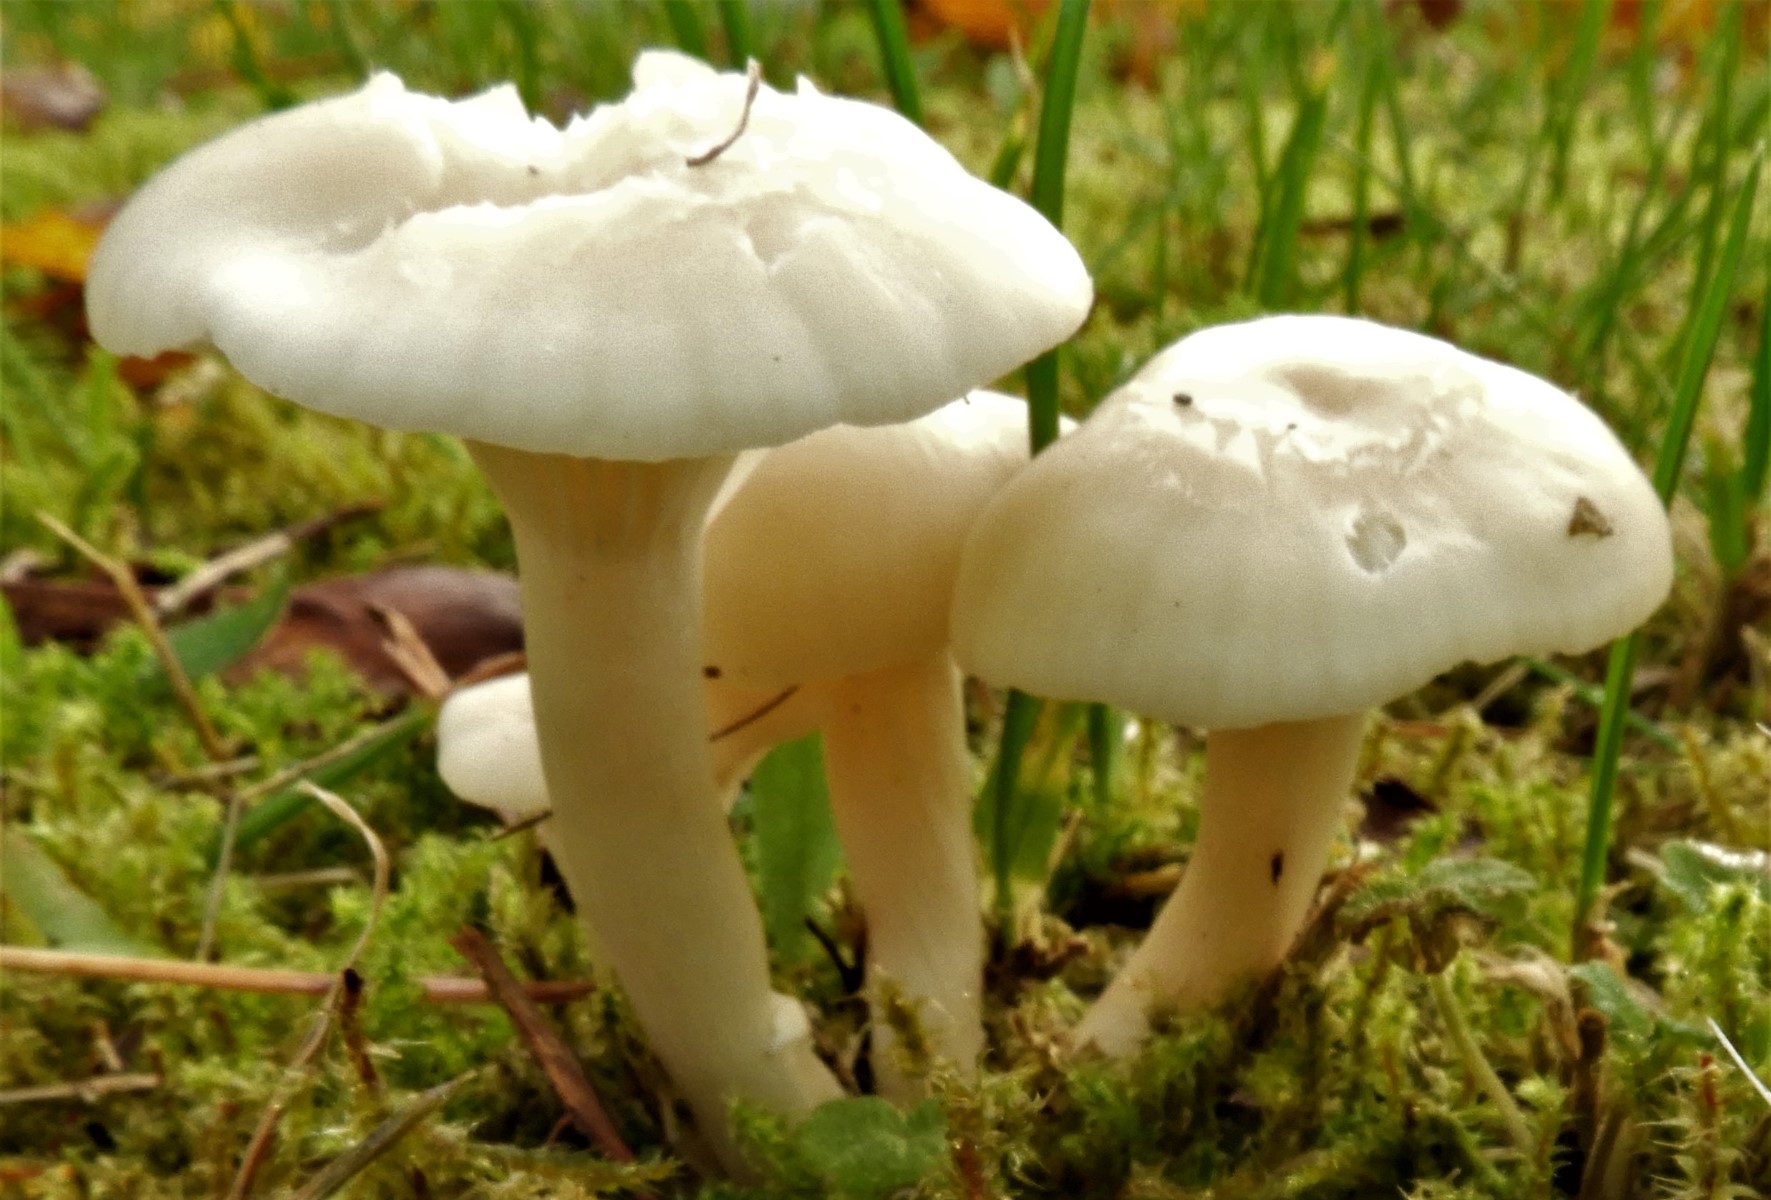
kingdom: Fungi
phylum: Basidiomycota
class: Agaricomycetes
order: Agaricales
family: Hygrophoraceae
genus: Cuphophyllus
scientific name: Cuphophyllus russocoriaceus
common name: ruslæder-vokshat
